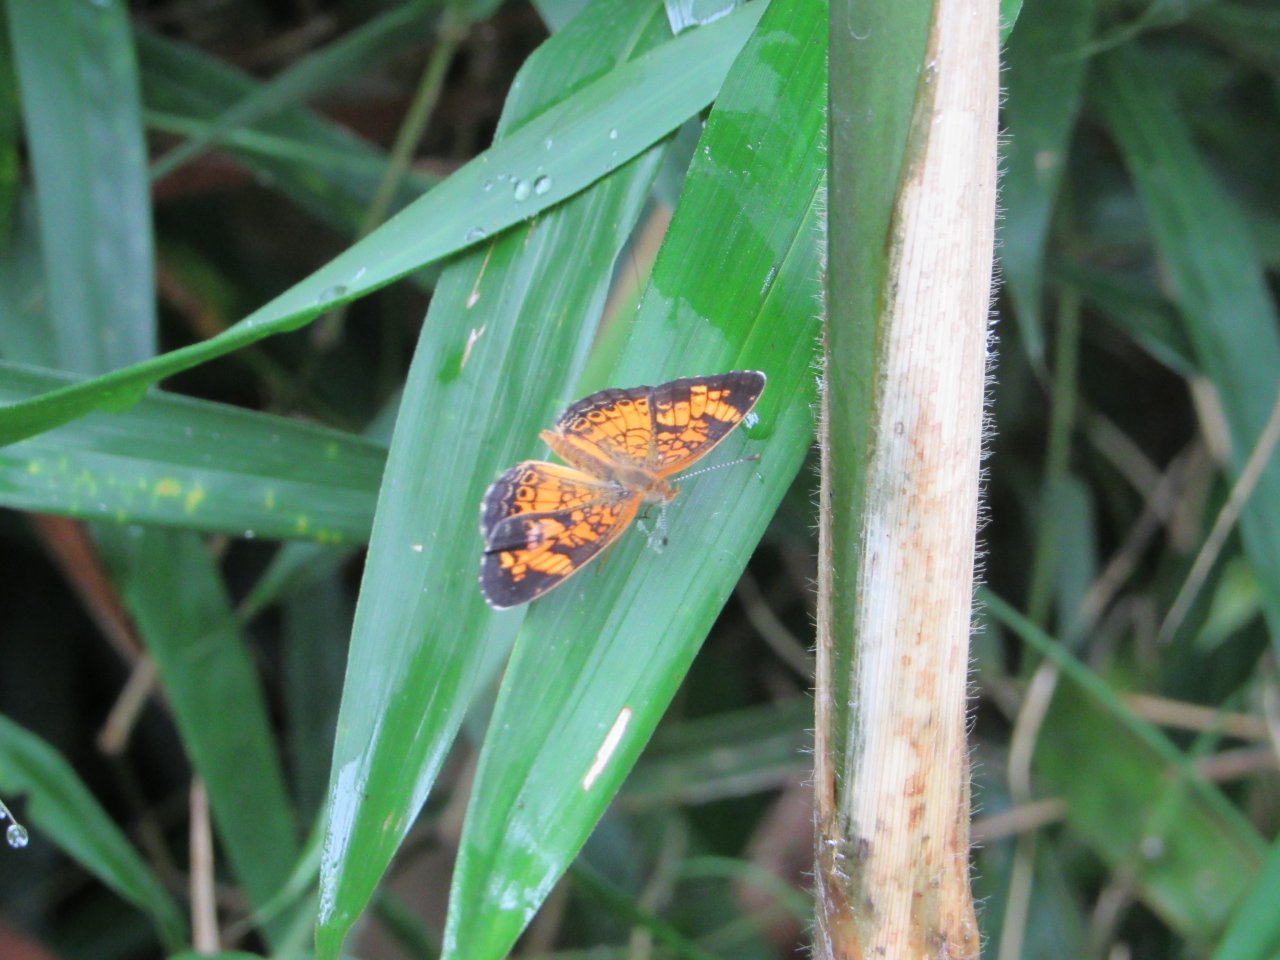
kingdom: Animalia
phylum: Arthropoda
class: Insecta
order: Lepidoptera
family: Nymphalidae
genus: Phyciodes
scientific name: Phyciodes tharos
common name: Pearl Crescent
